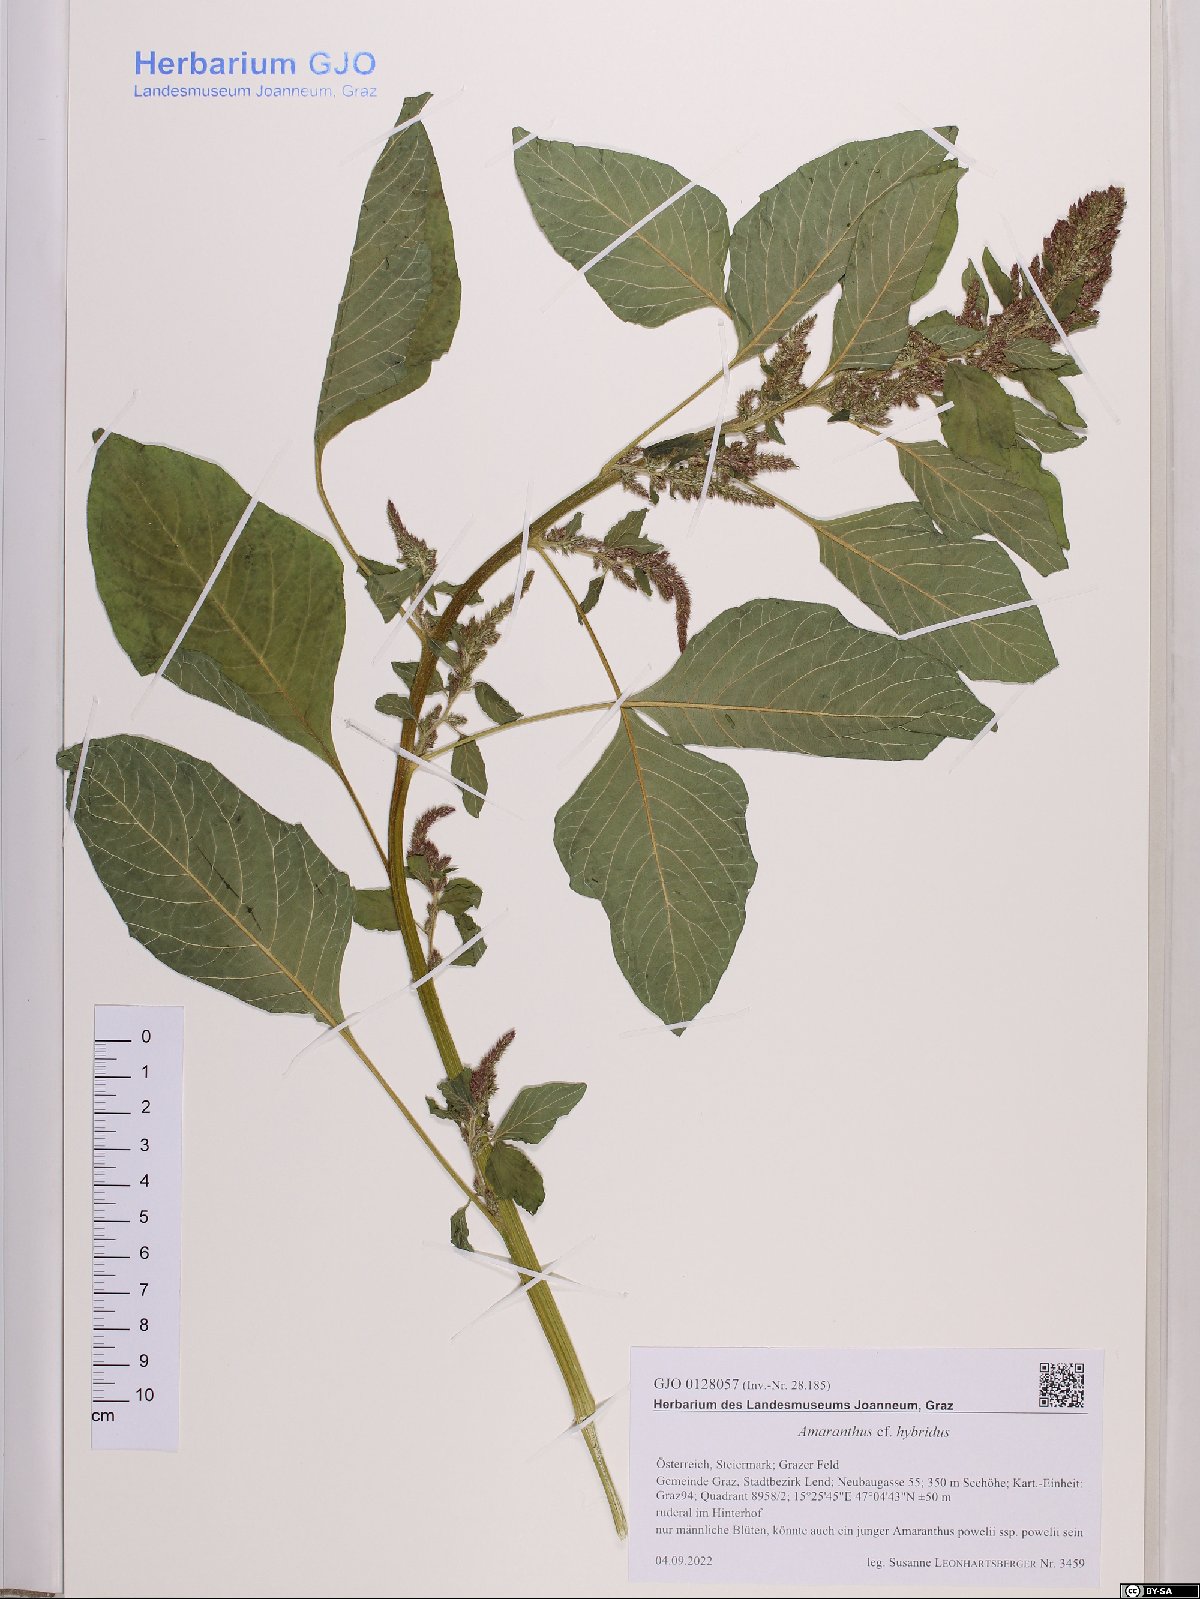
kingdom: Plantae
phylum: Tracheophyta
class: Magnoliopsida
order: Caryophyllales
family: Amaranthaceae
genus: Amaranthus
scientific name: Amaranthus hybridus
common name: Green amaranth
